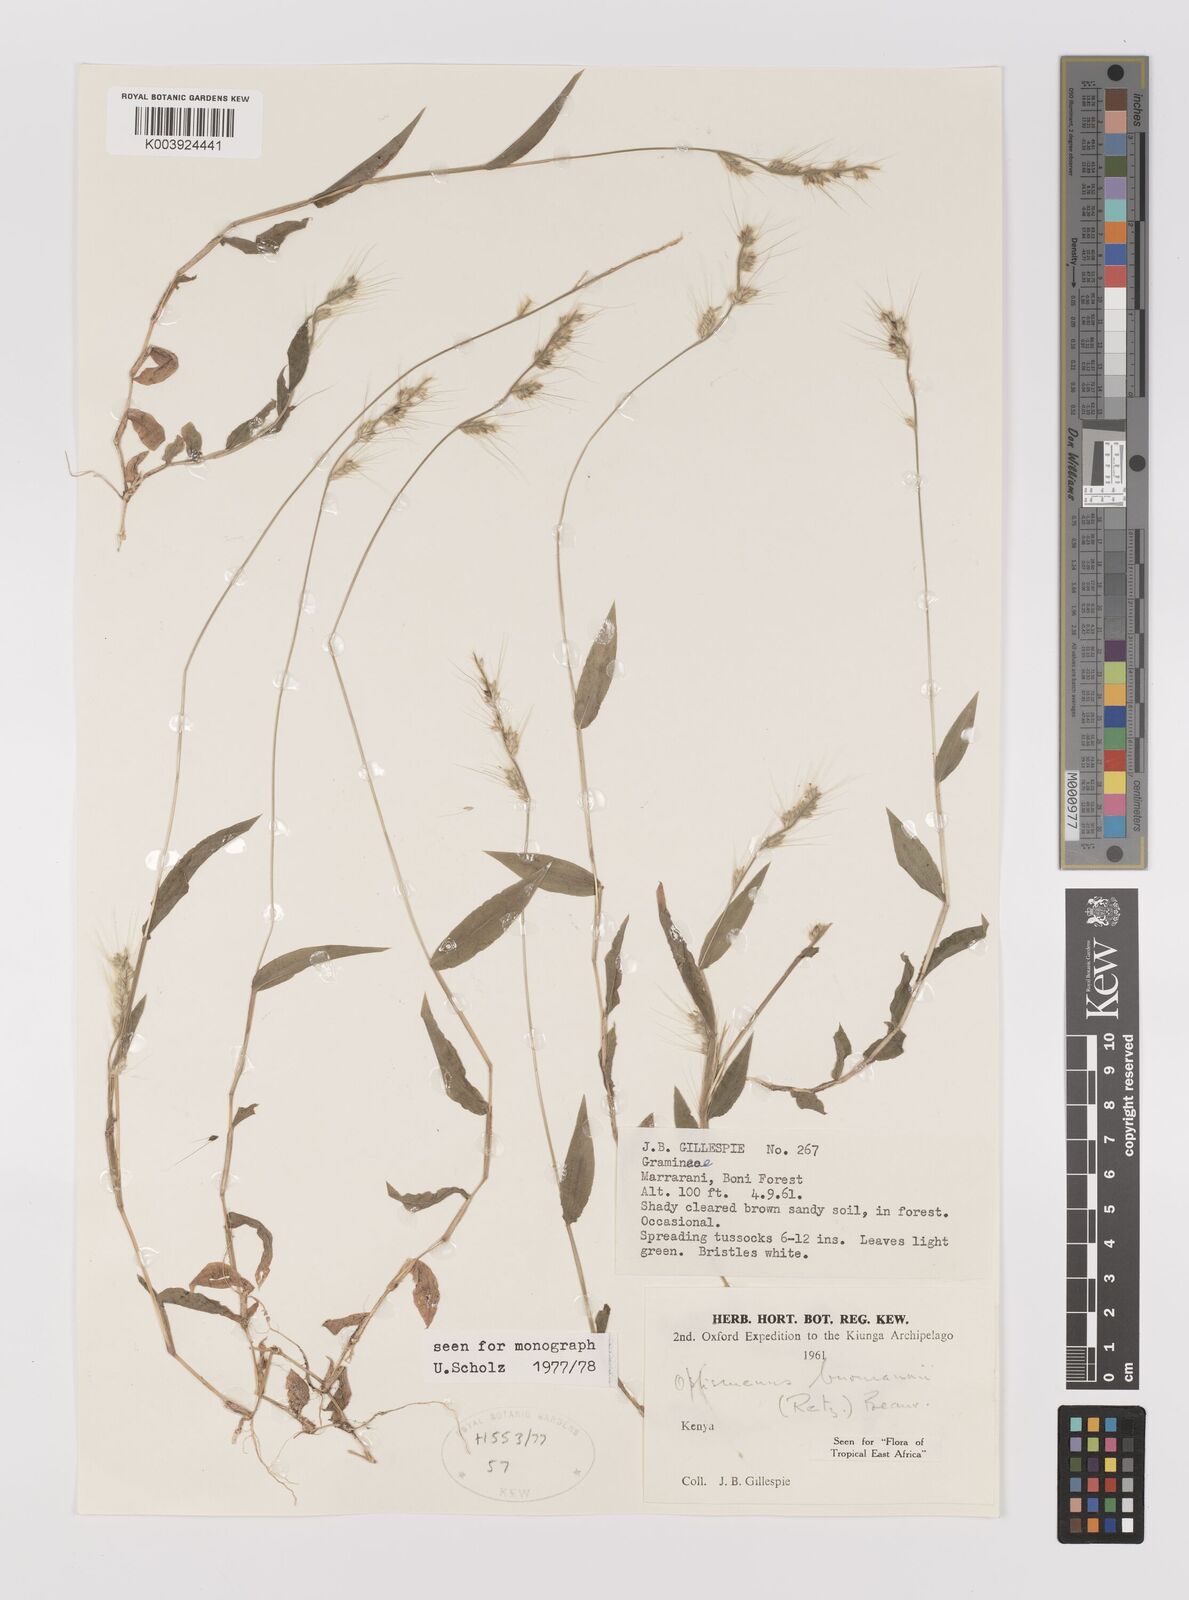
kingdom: Plantae
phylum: Tracheophyta
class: Liliopsida
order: Poales
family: Poaceae
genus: Oplismenus
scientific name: Oplismenus burmanni
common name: Burmann's basketgrass
